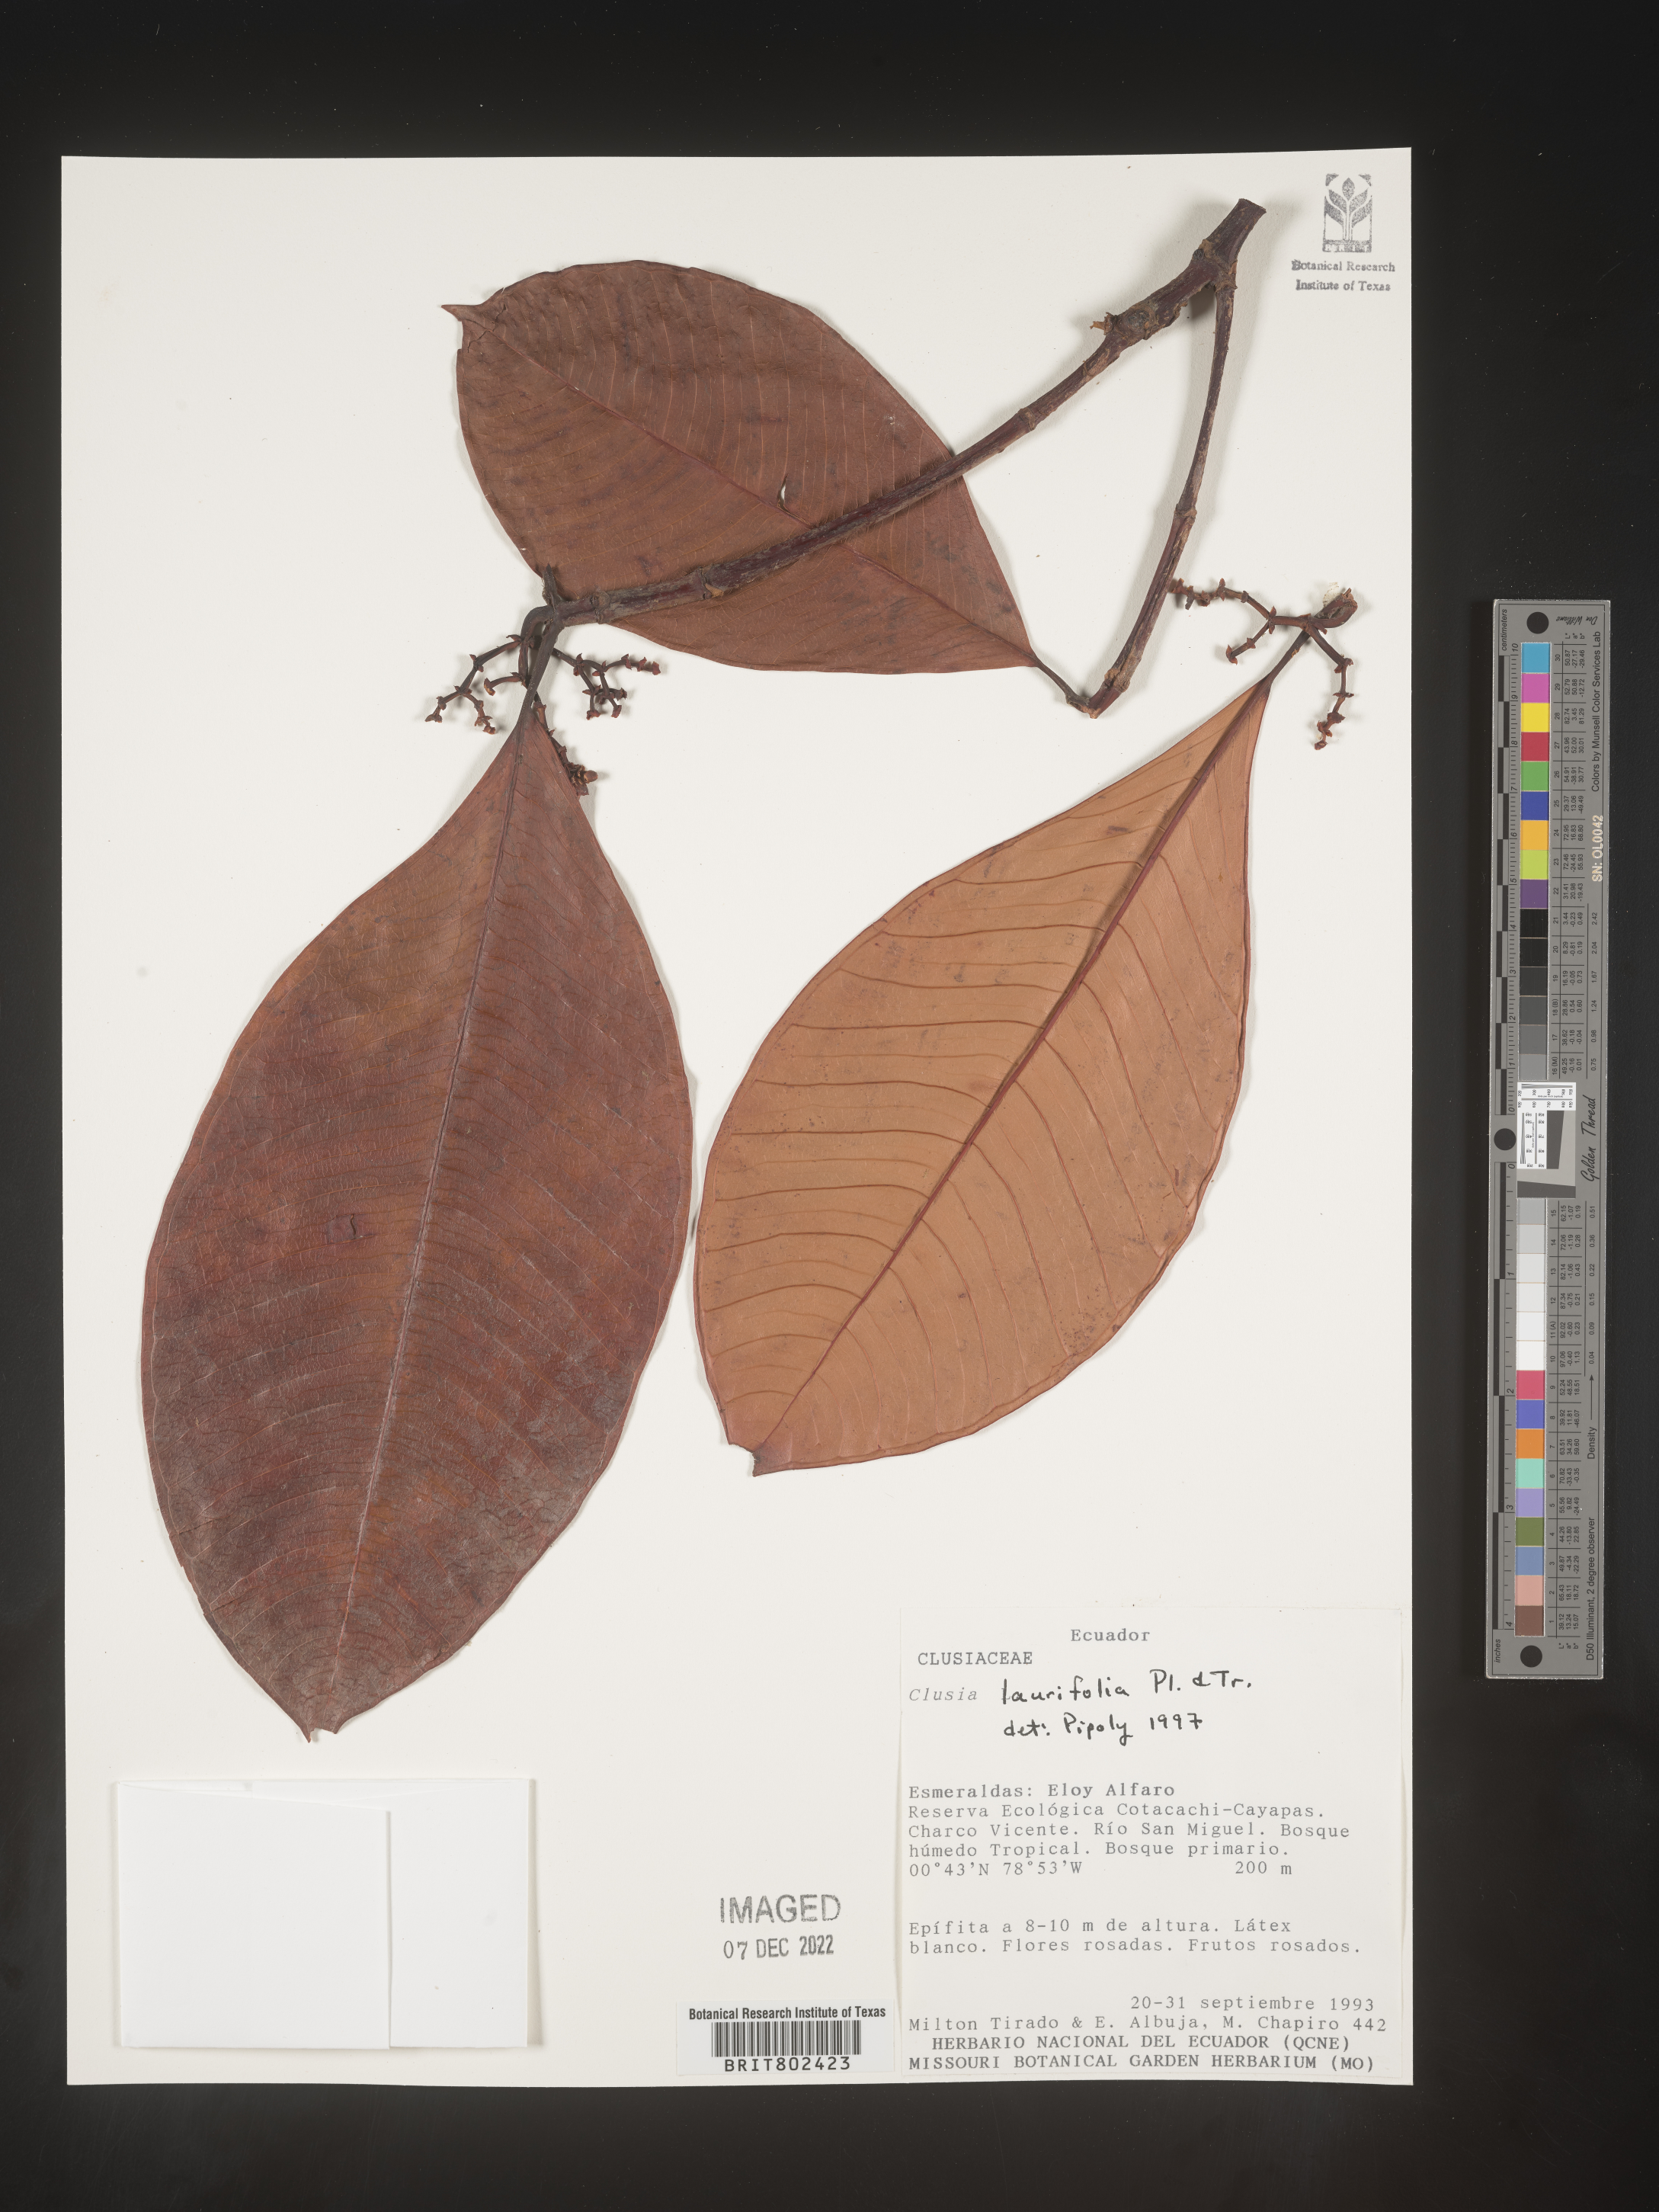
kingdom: Plantae
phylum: Tracheophyta
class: Magnoliopsida
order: Malpighiales
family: Clusiaceae
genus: Clusia
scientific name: Clusia laurifolia
